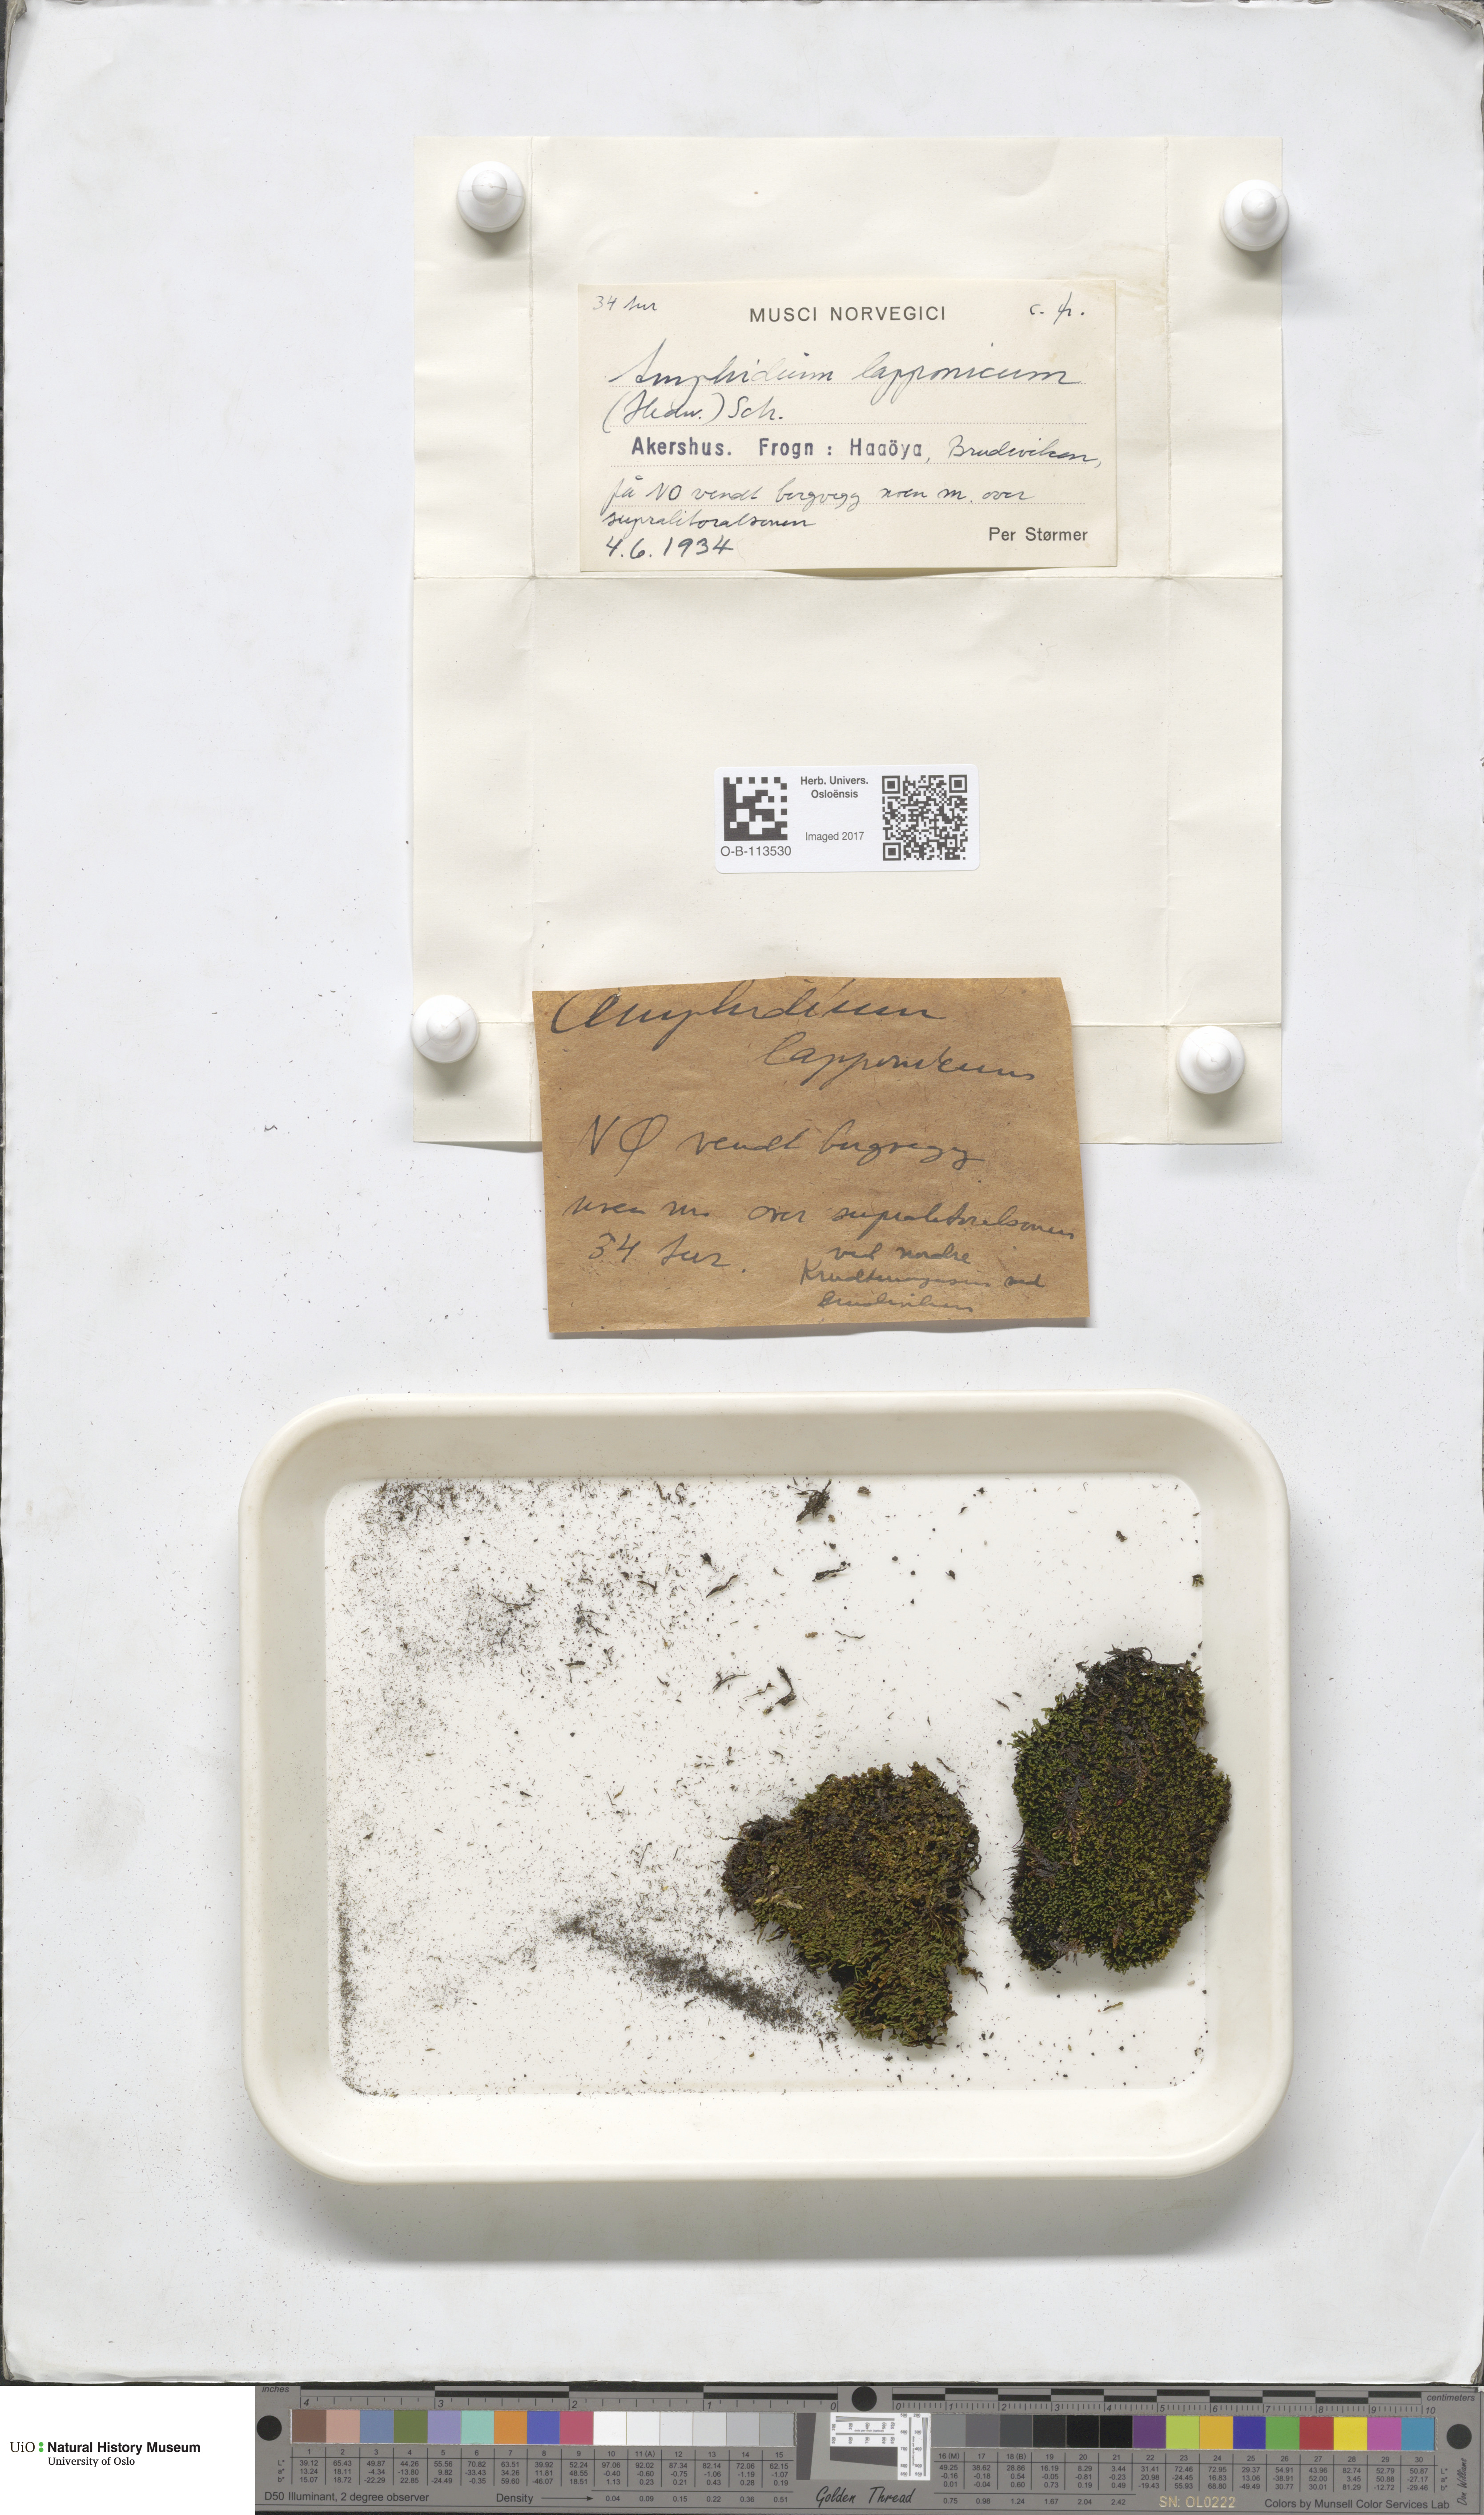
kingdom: Plantae
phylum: Bryophyta
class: Bryopsida
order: Dicranales
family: Amphidiaceae
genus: Amphidium
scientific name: Amphidium lapponicum
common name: Lapland yoke moss
